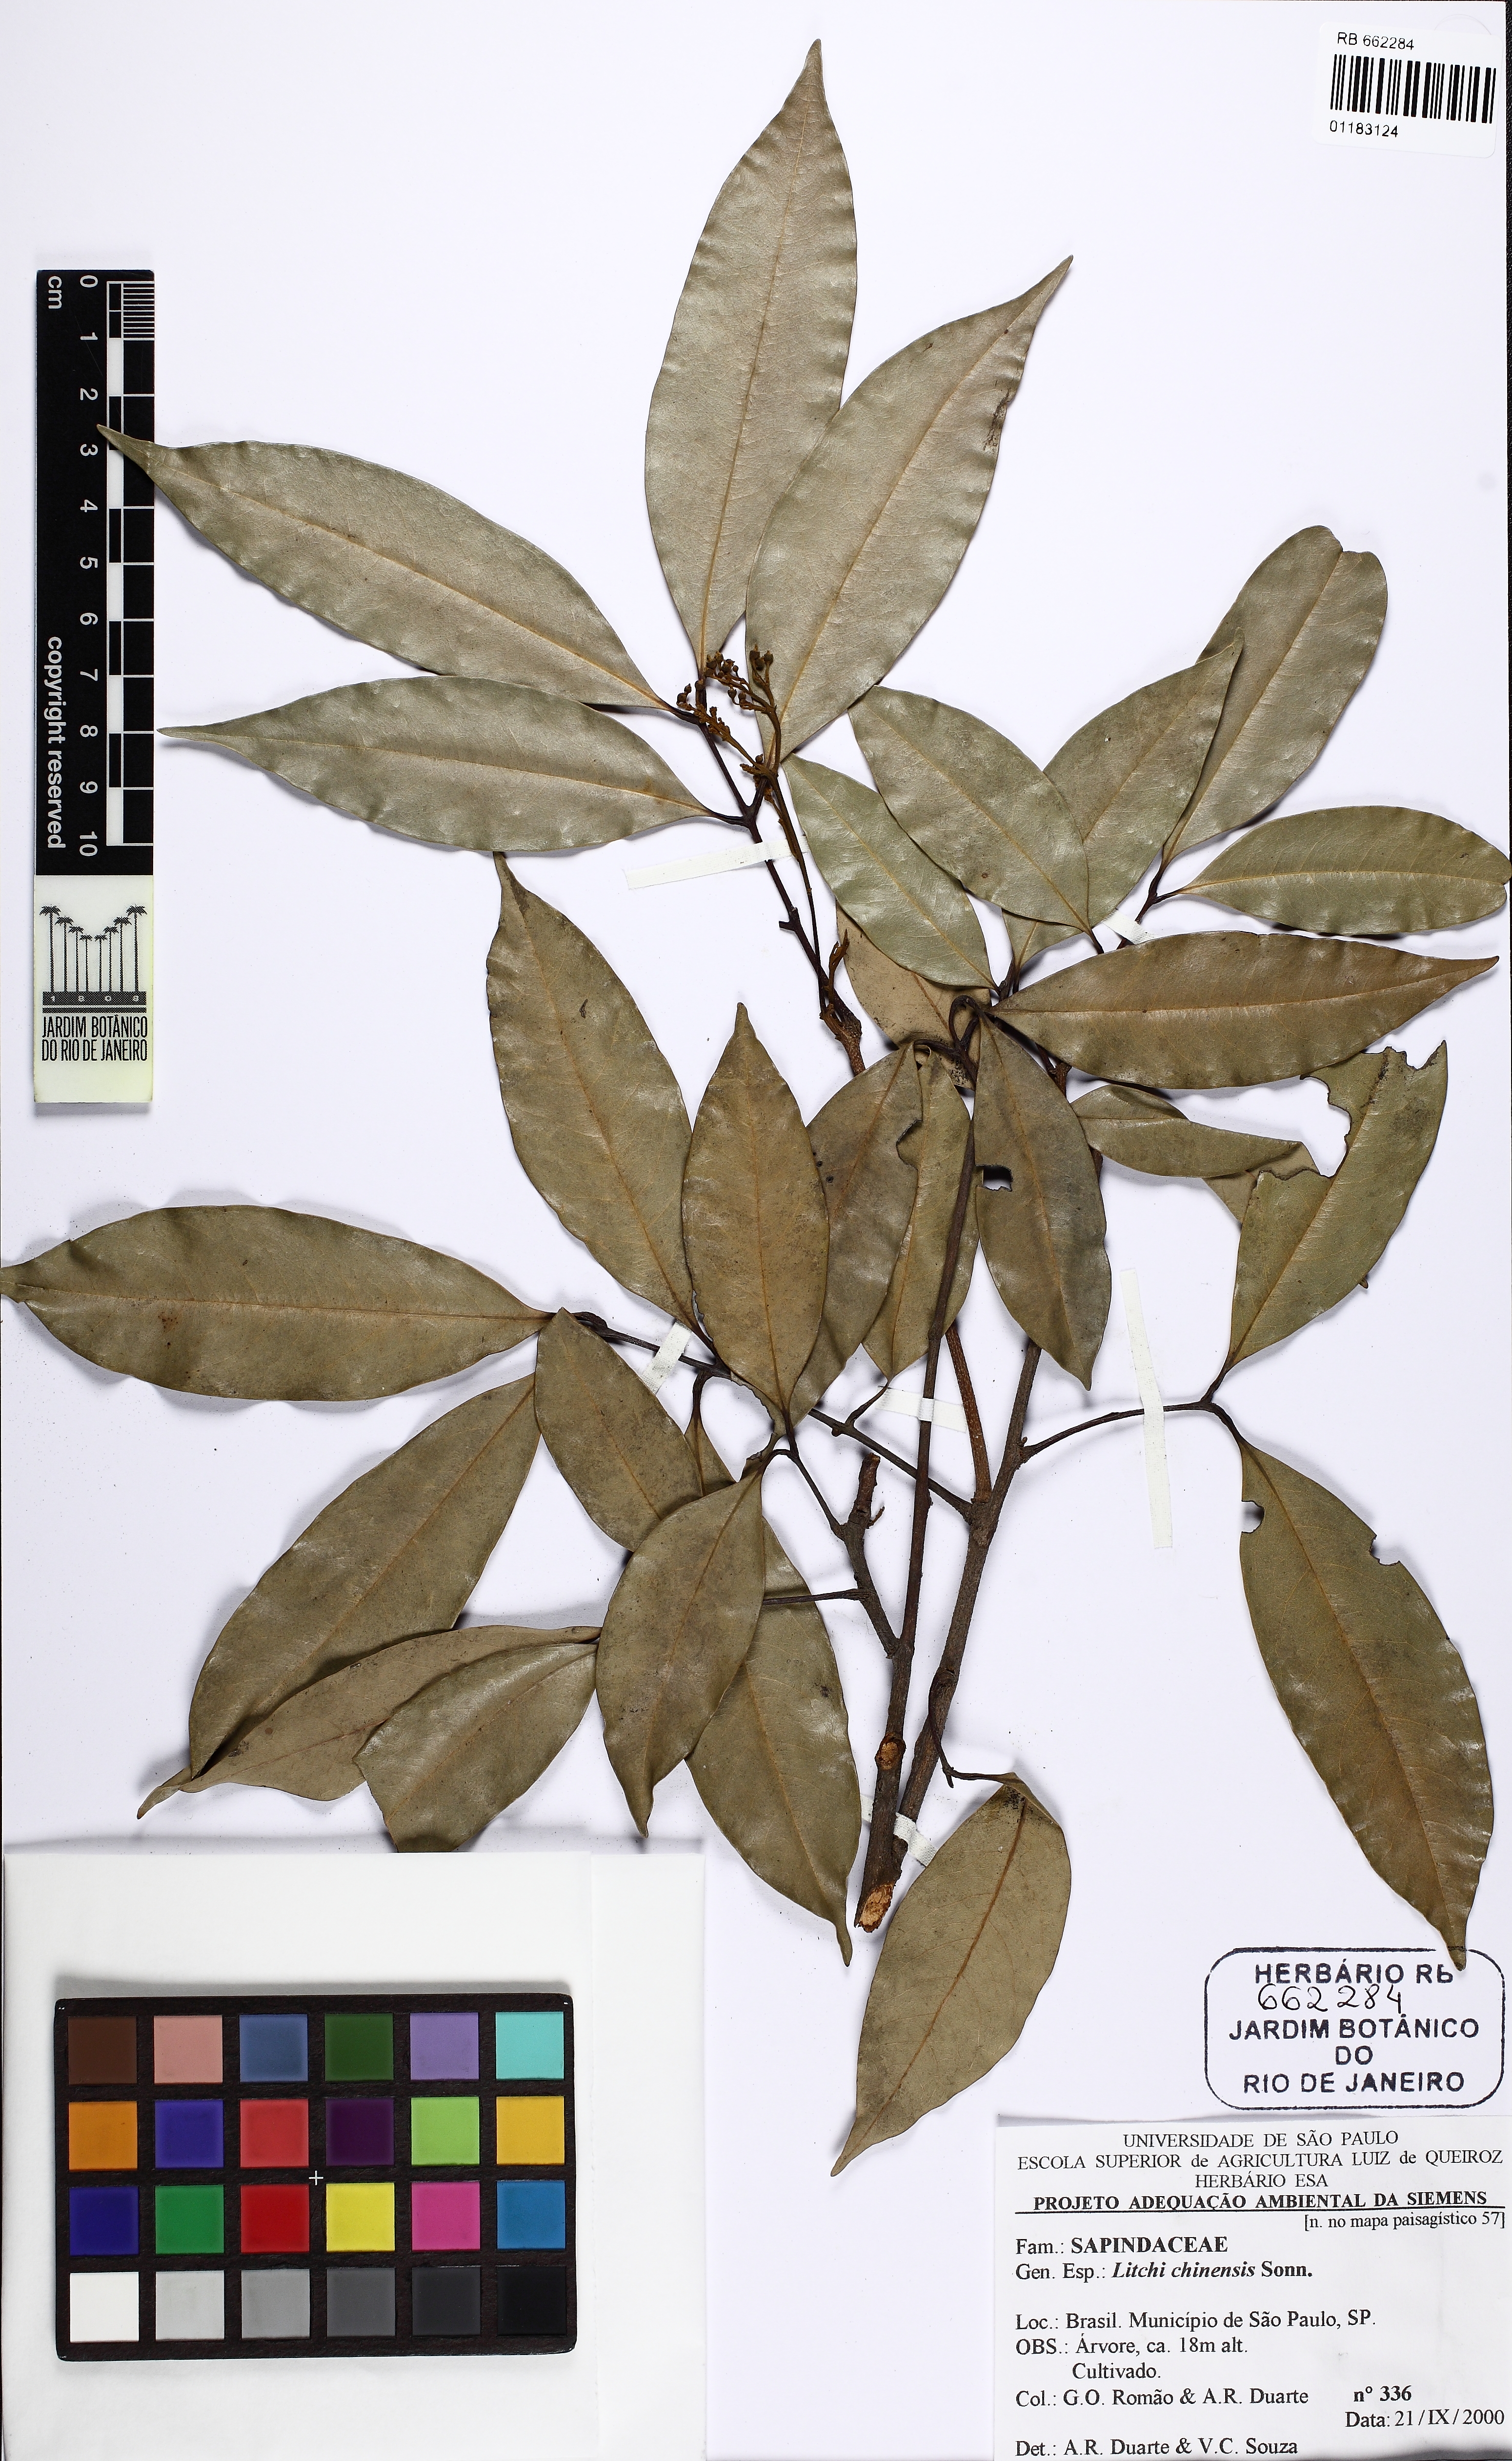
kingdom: Plantae
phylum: Tracheophyta
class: Magnoliopsida
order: Sapindales
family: Sapindaceae
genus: Litchi
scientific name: Litchi chinensis
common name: Litchi
